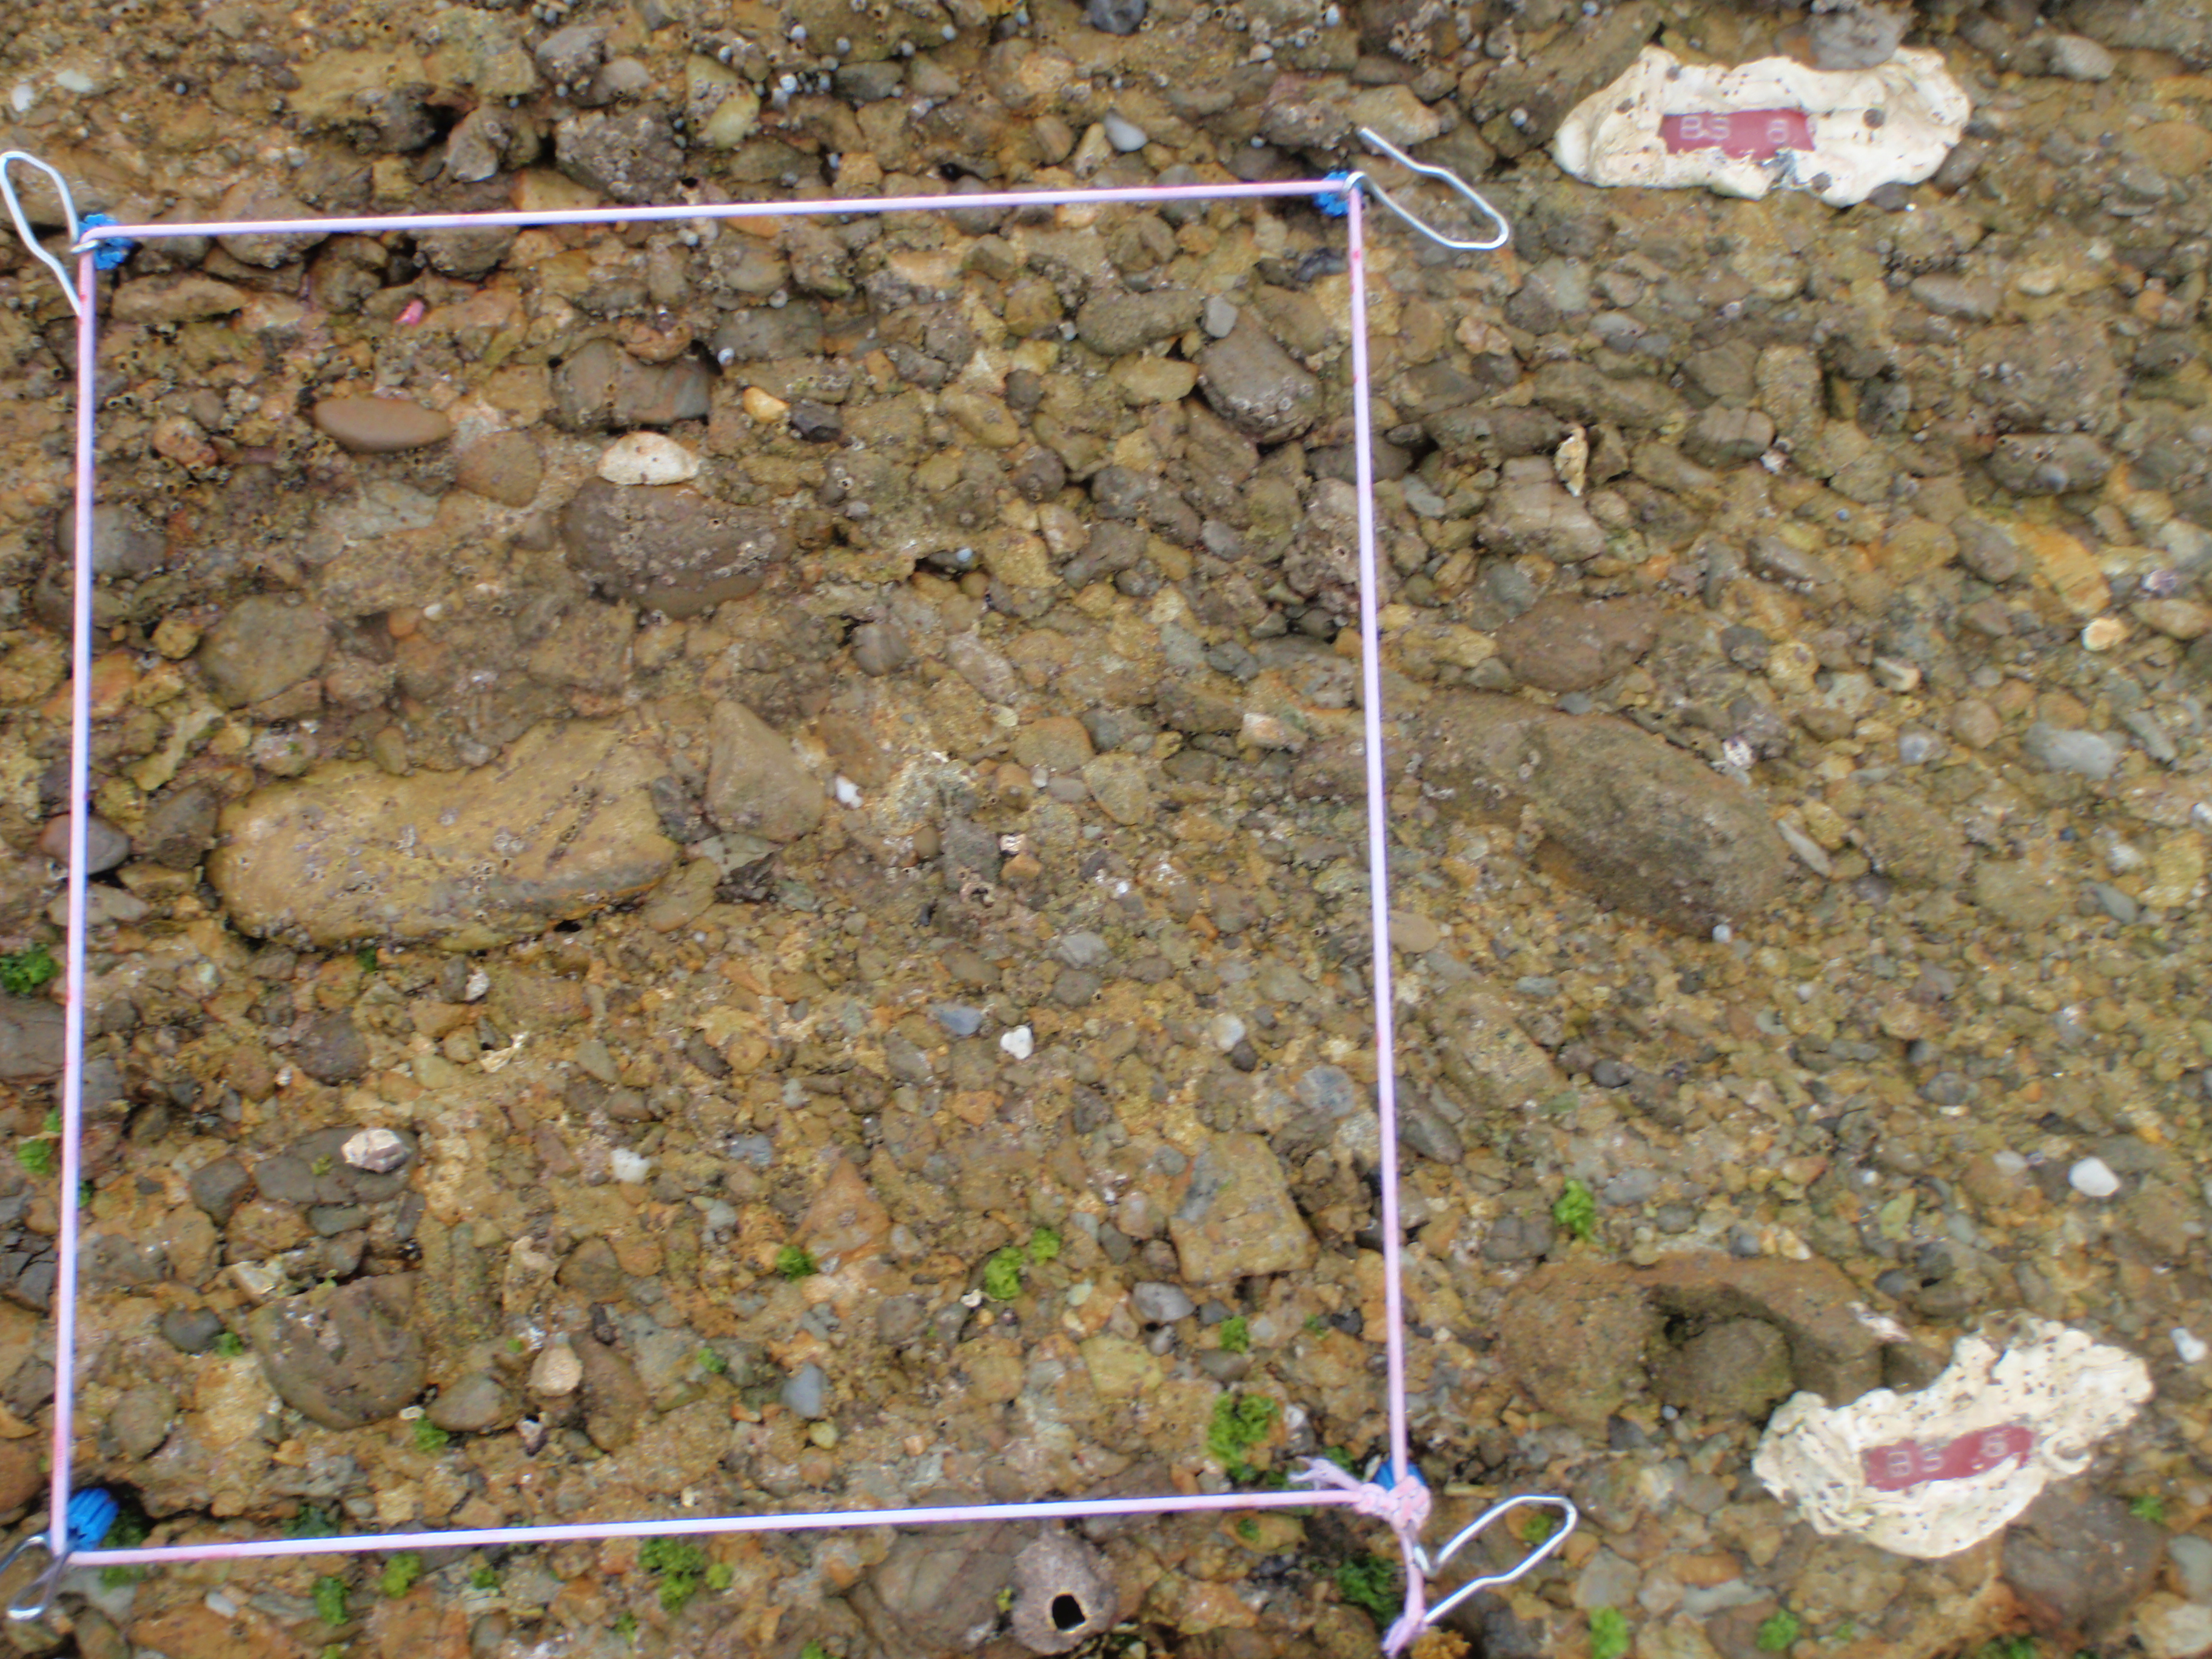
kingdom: Animalia
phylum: Arthropoda
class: Maxillopoda
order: Sessilia
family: Chthamalidae
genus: Chthamalus
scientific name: Chthamalus challengeri
